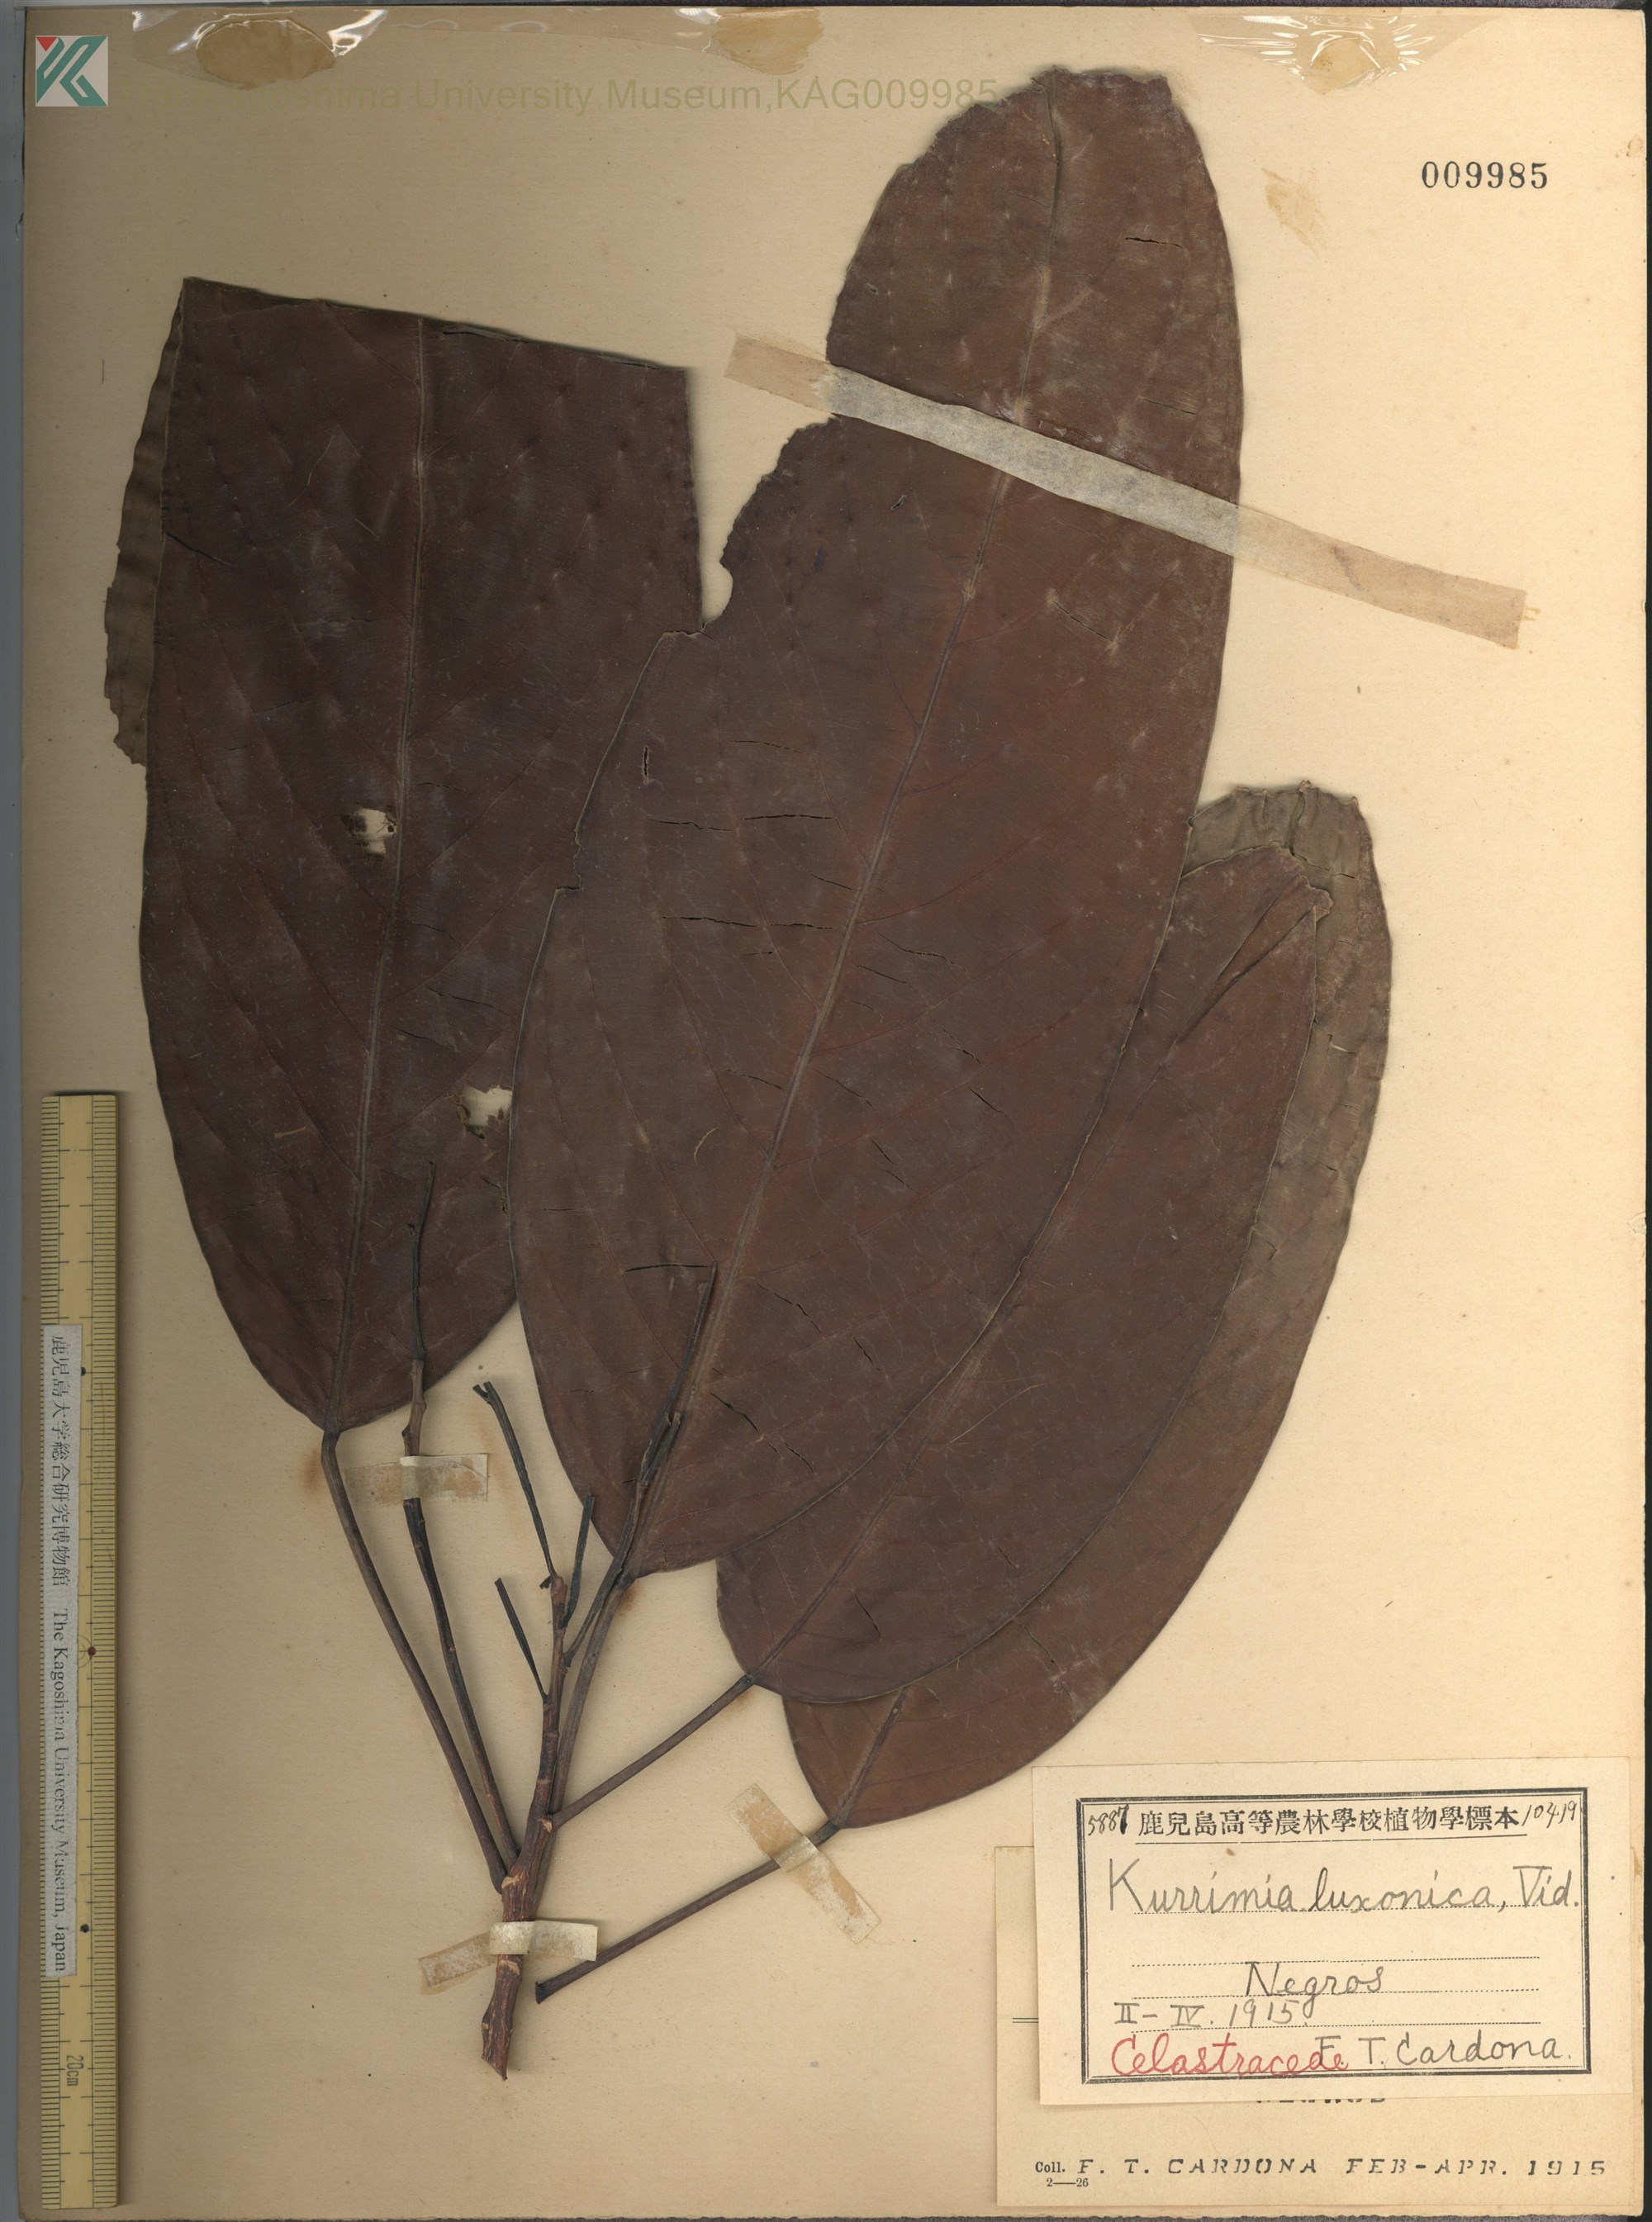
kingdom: Plantae
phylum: Tracheophyta
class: Magnoliopsida
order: Saxifragales
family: Iteaceae
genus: Itea
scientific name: Itea Kurrimia luzonica
